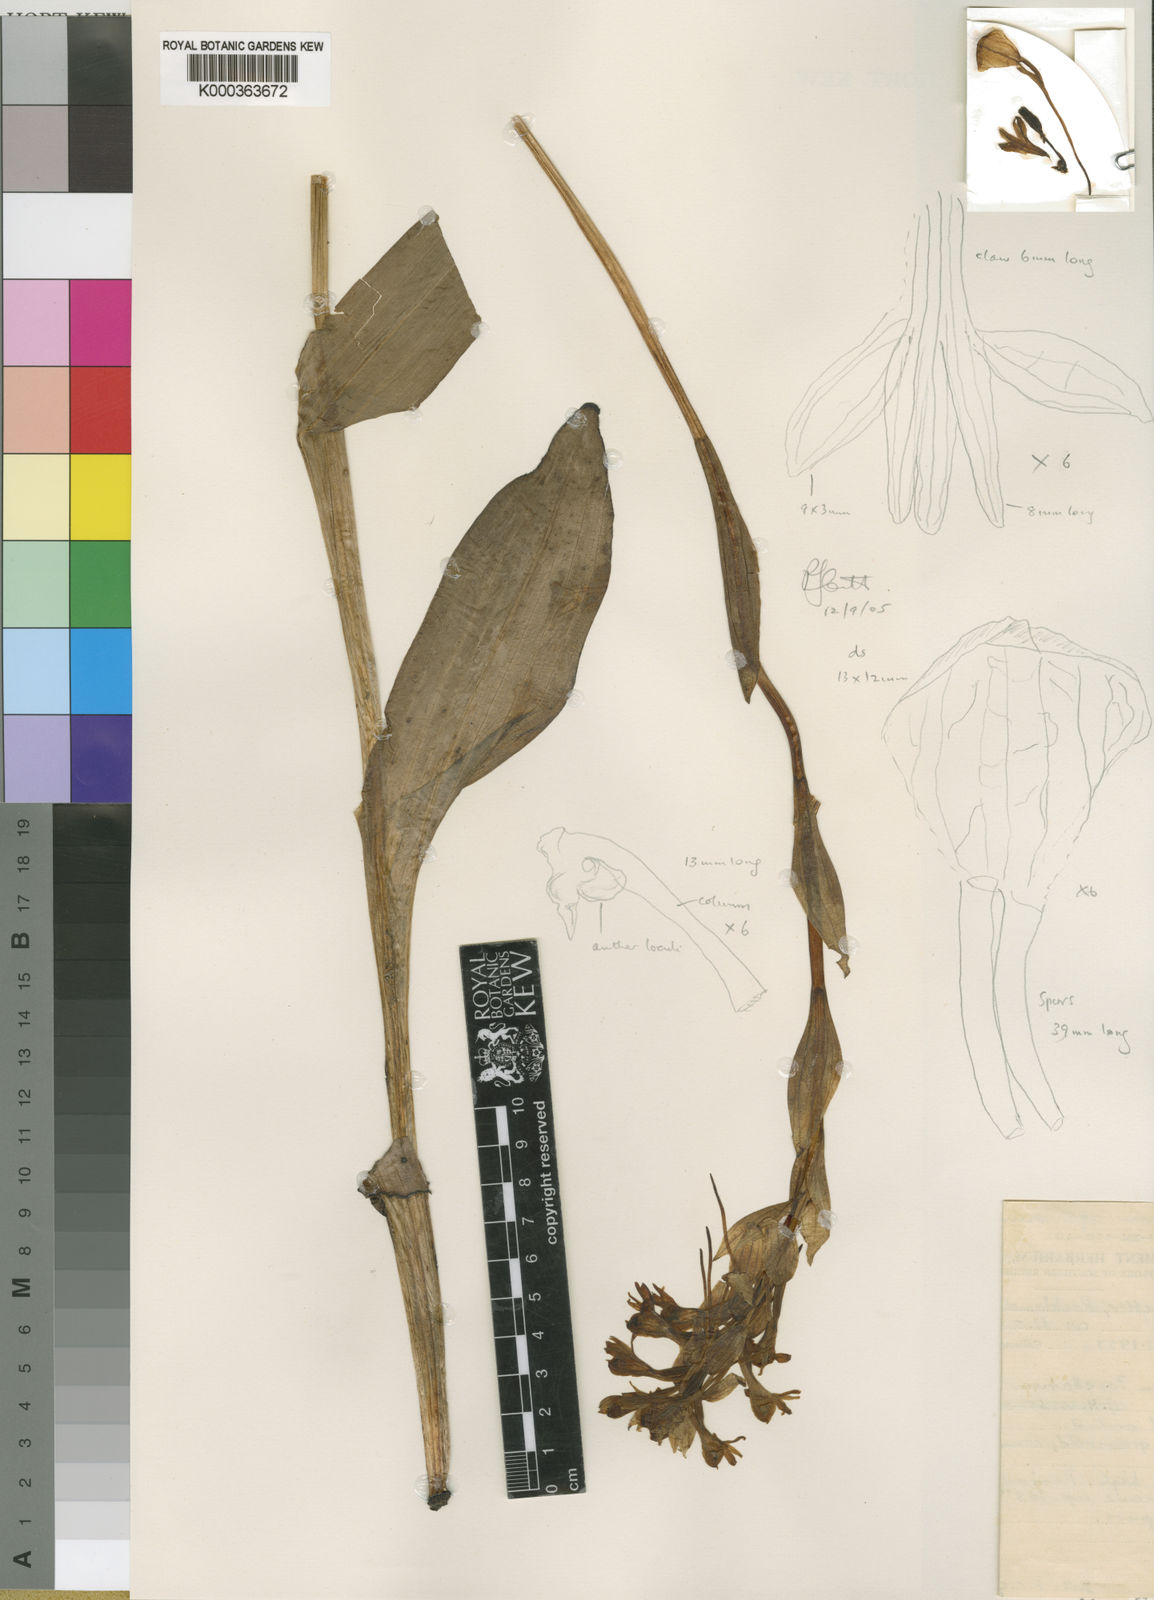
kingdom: Plantae
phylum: Tracheophyta
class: Liliopsida
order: Asparagales
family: Orchidaceae
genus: Satyrium
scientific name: Satyrium hallackii
